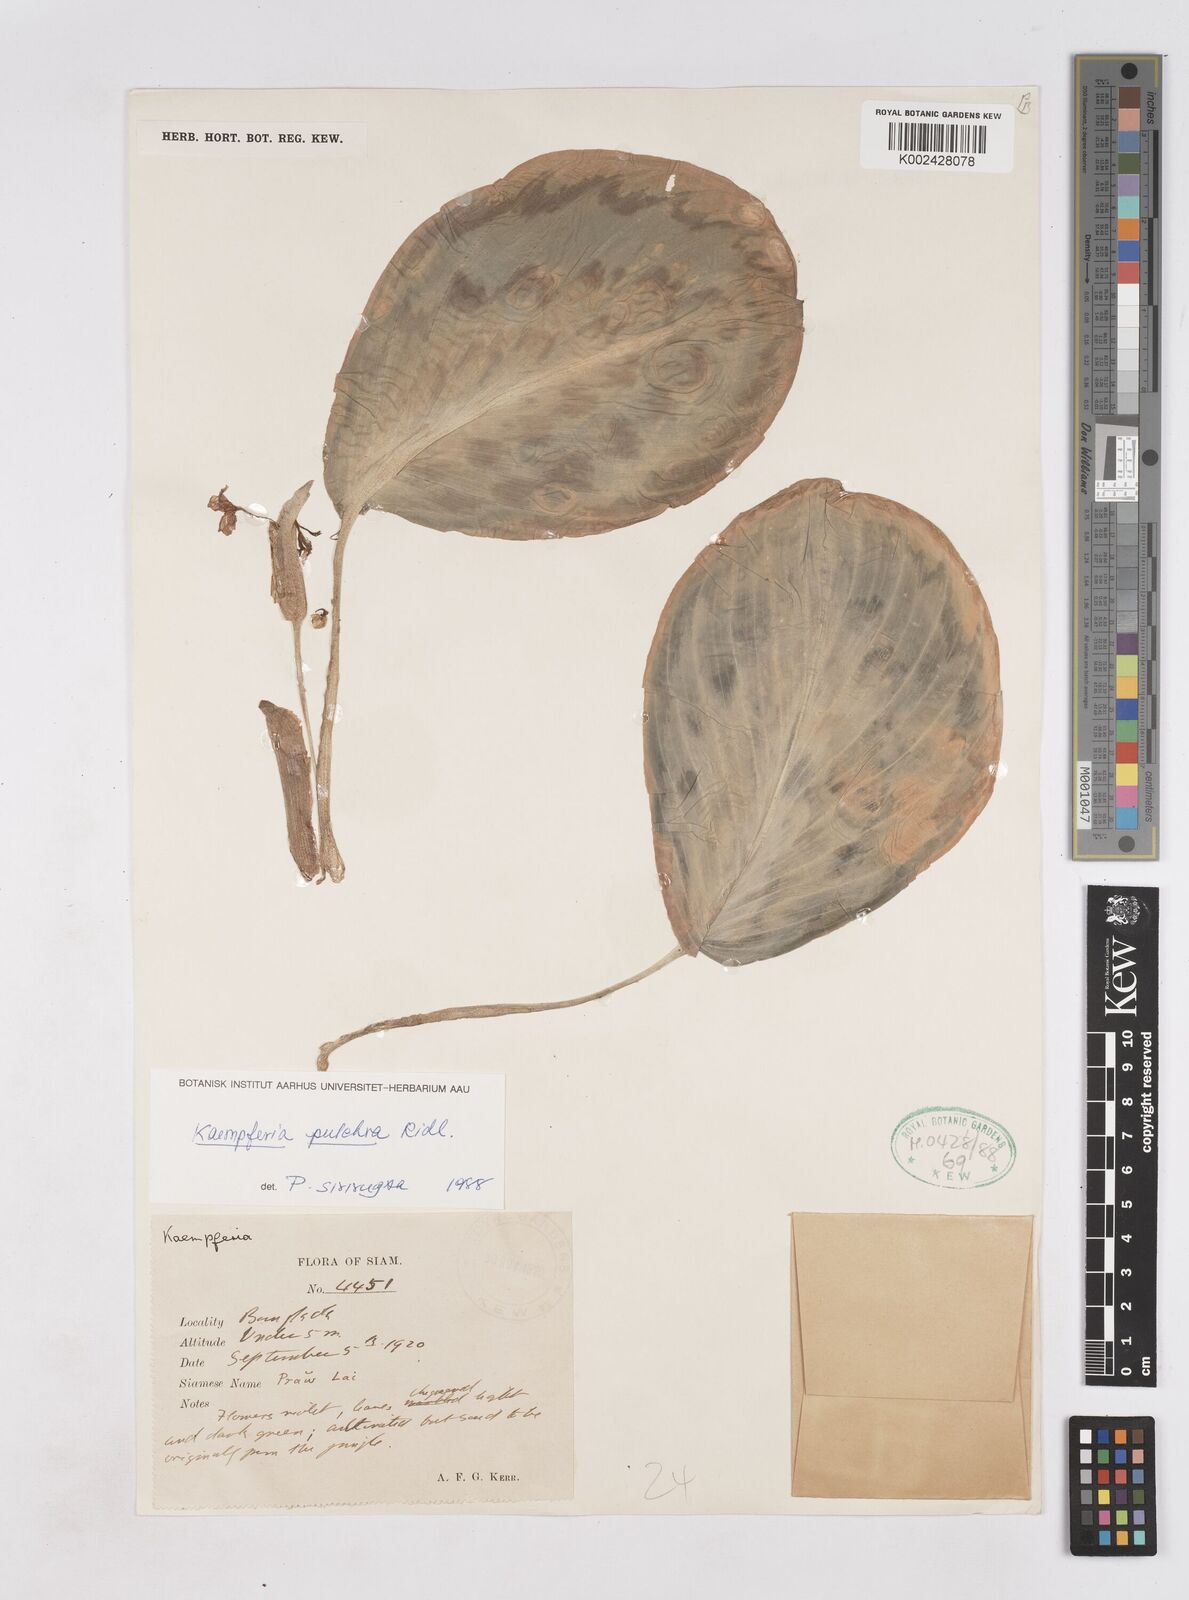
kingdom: Plantae
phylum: Tracheophyta
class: Liliopsida
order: Zingiberales
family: Zingiberaceae
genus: Kaempferia
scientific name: Kaempferia elegans
